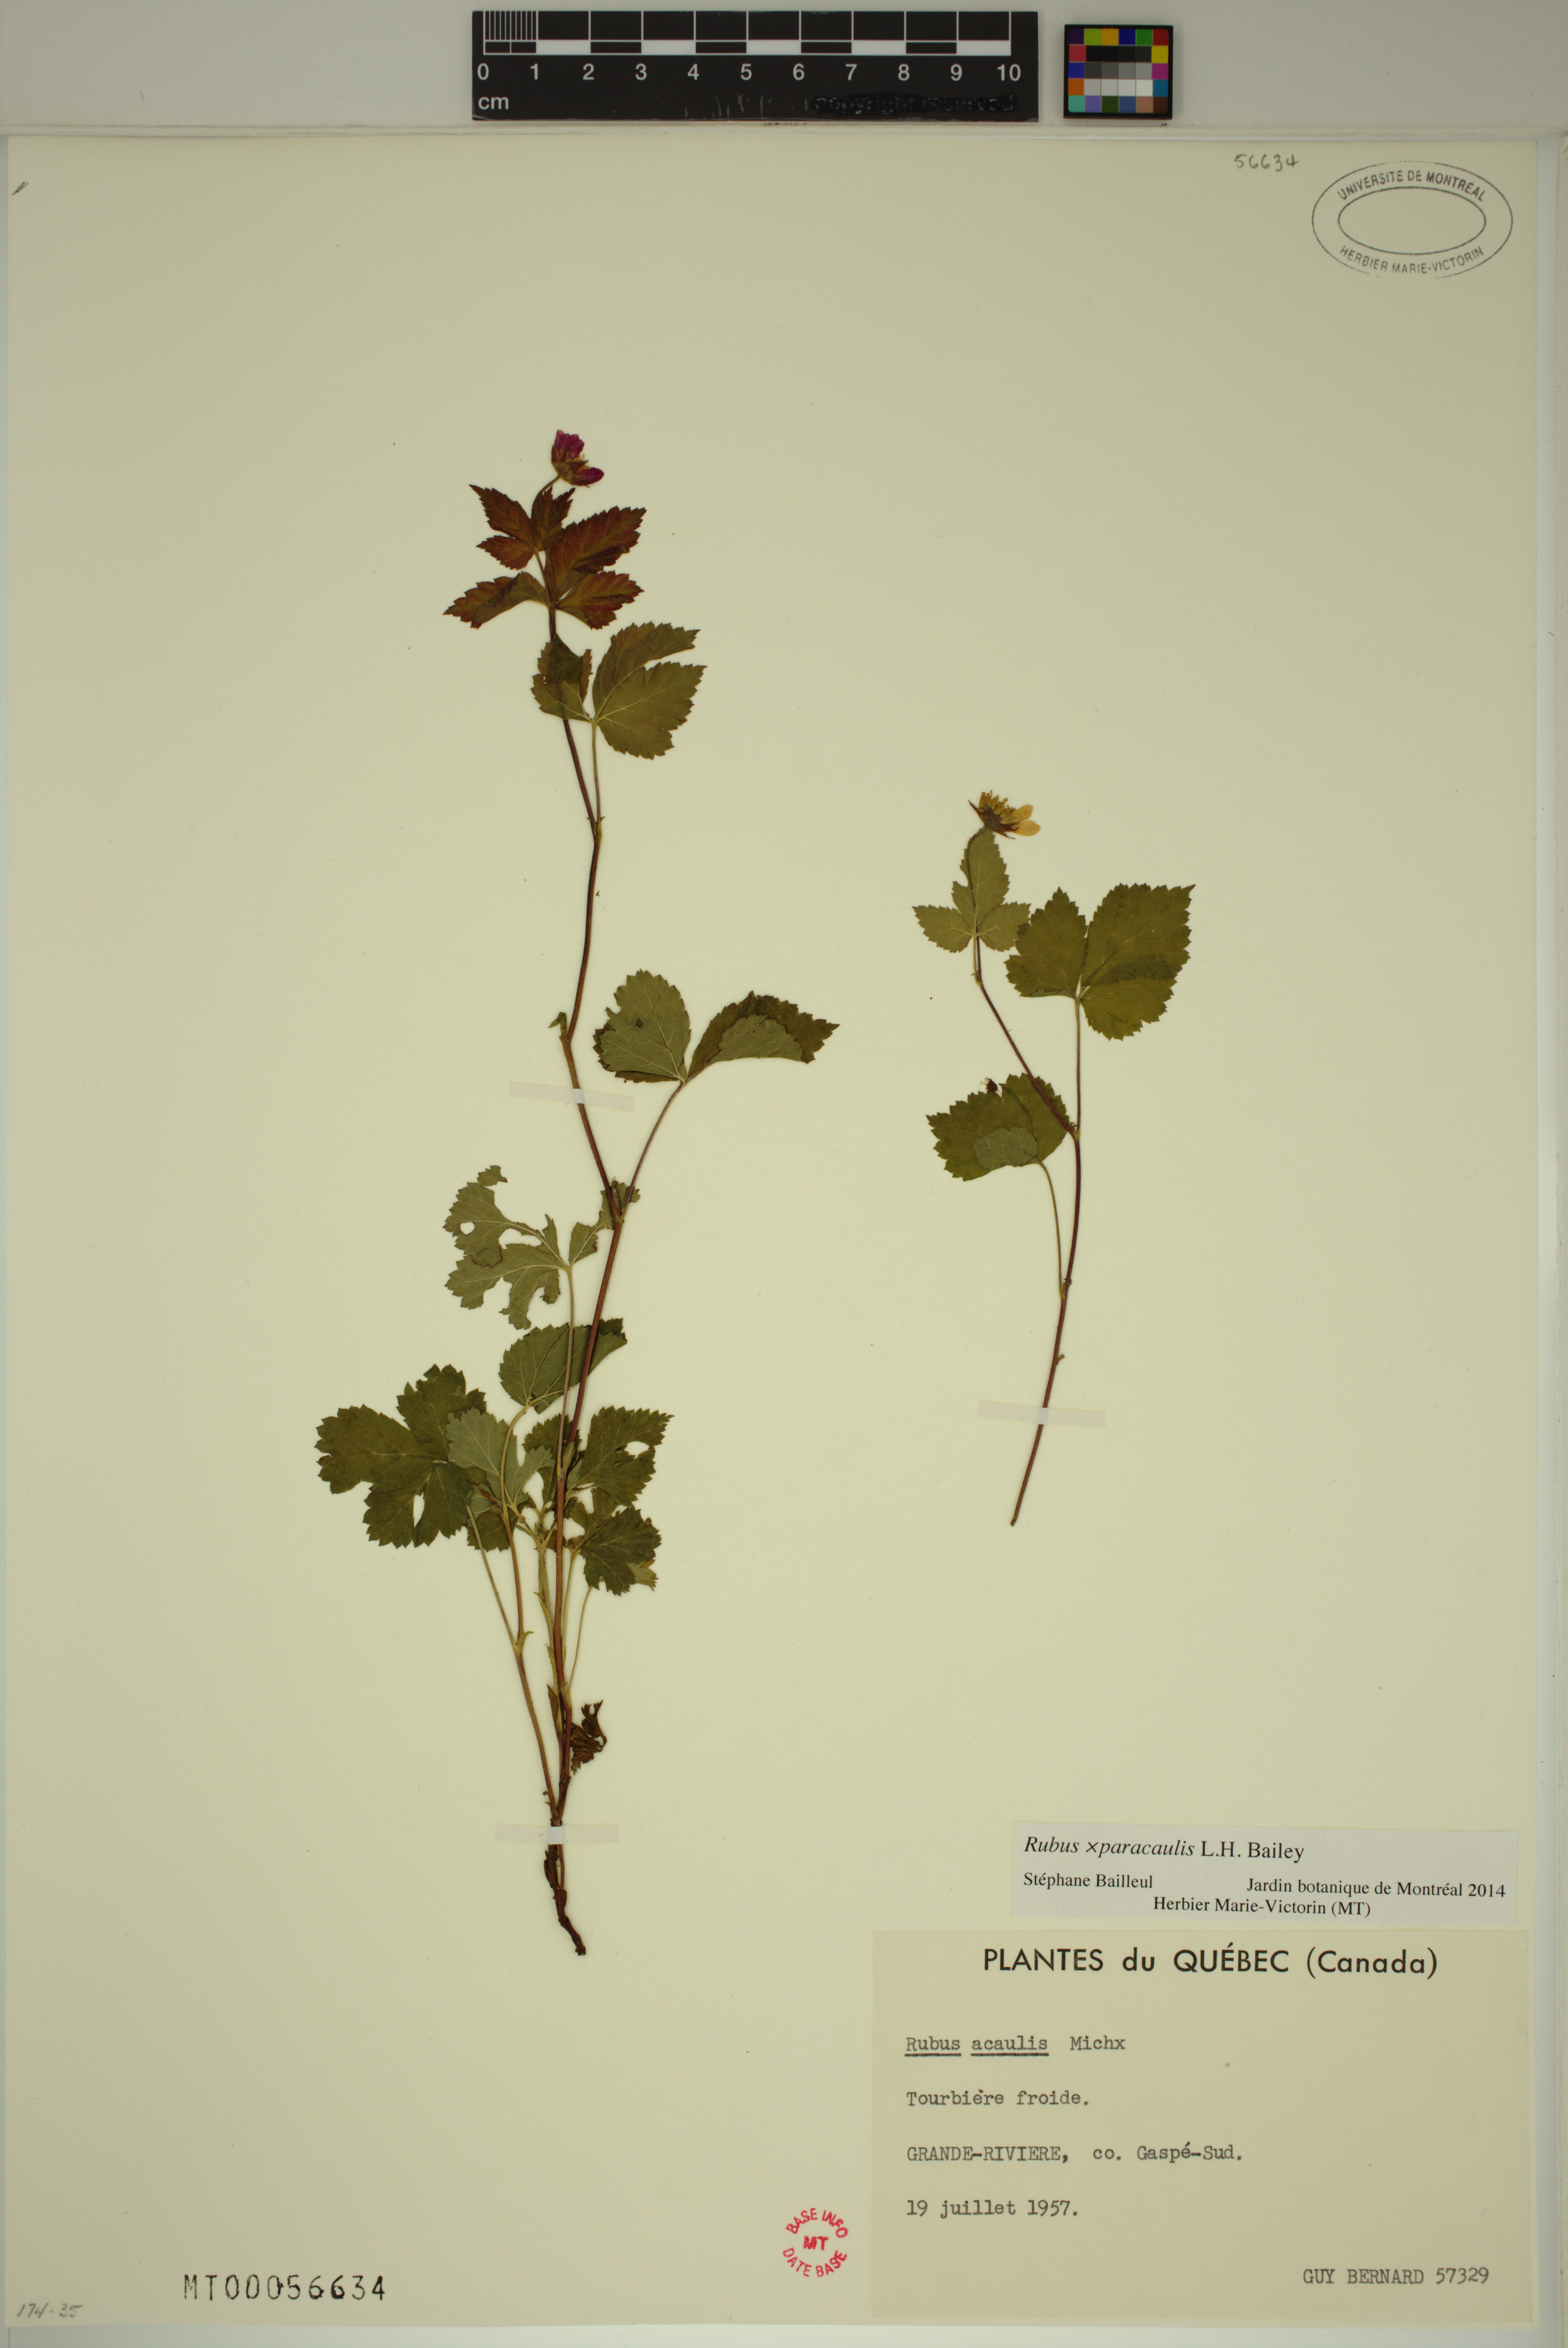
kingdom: Plantae
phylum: Tracheophyta
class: Magnoliopsida
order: Rosales
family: Rosaceae
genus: Rubus
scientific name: Rubus paracaulis
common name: Dwarf white-flowered raspberry
